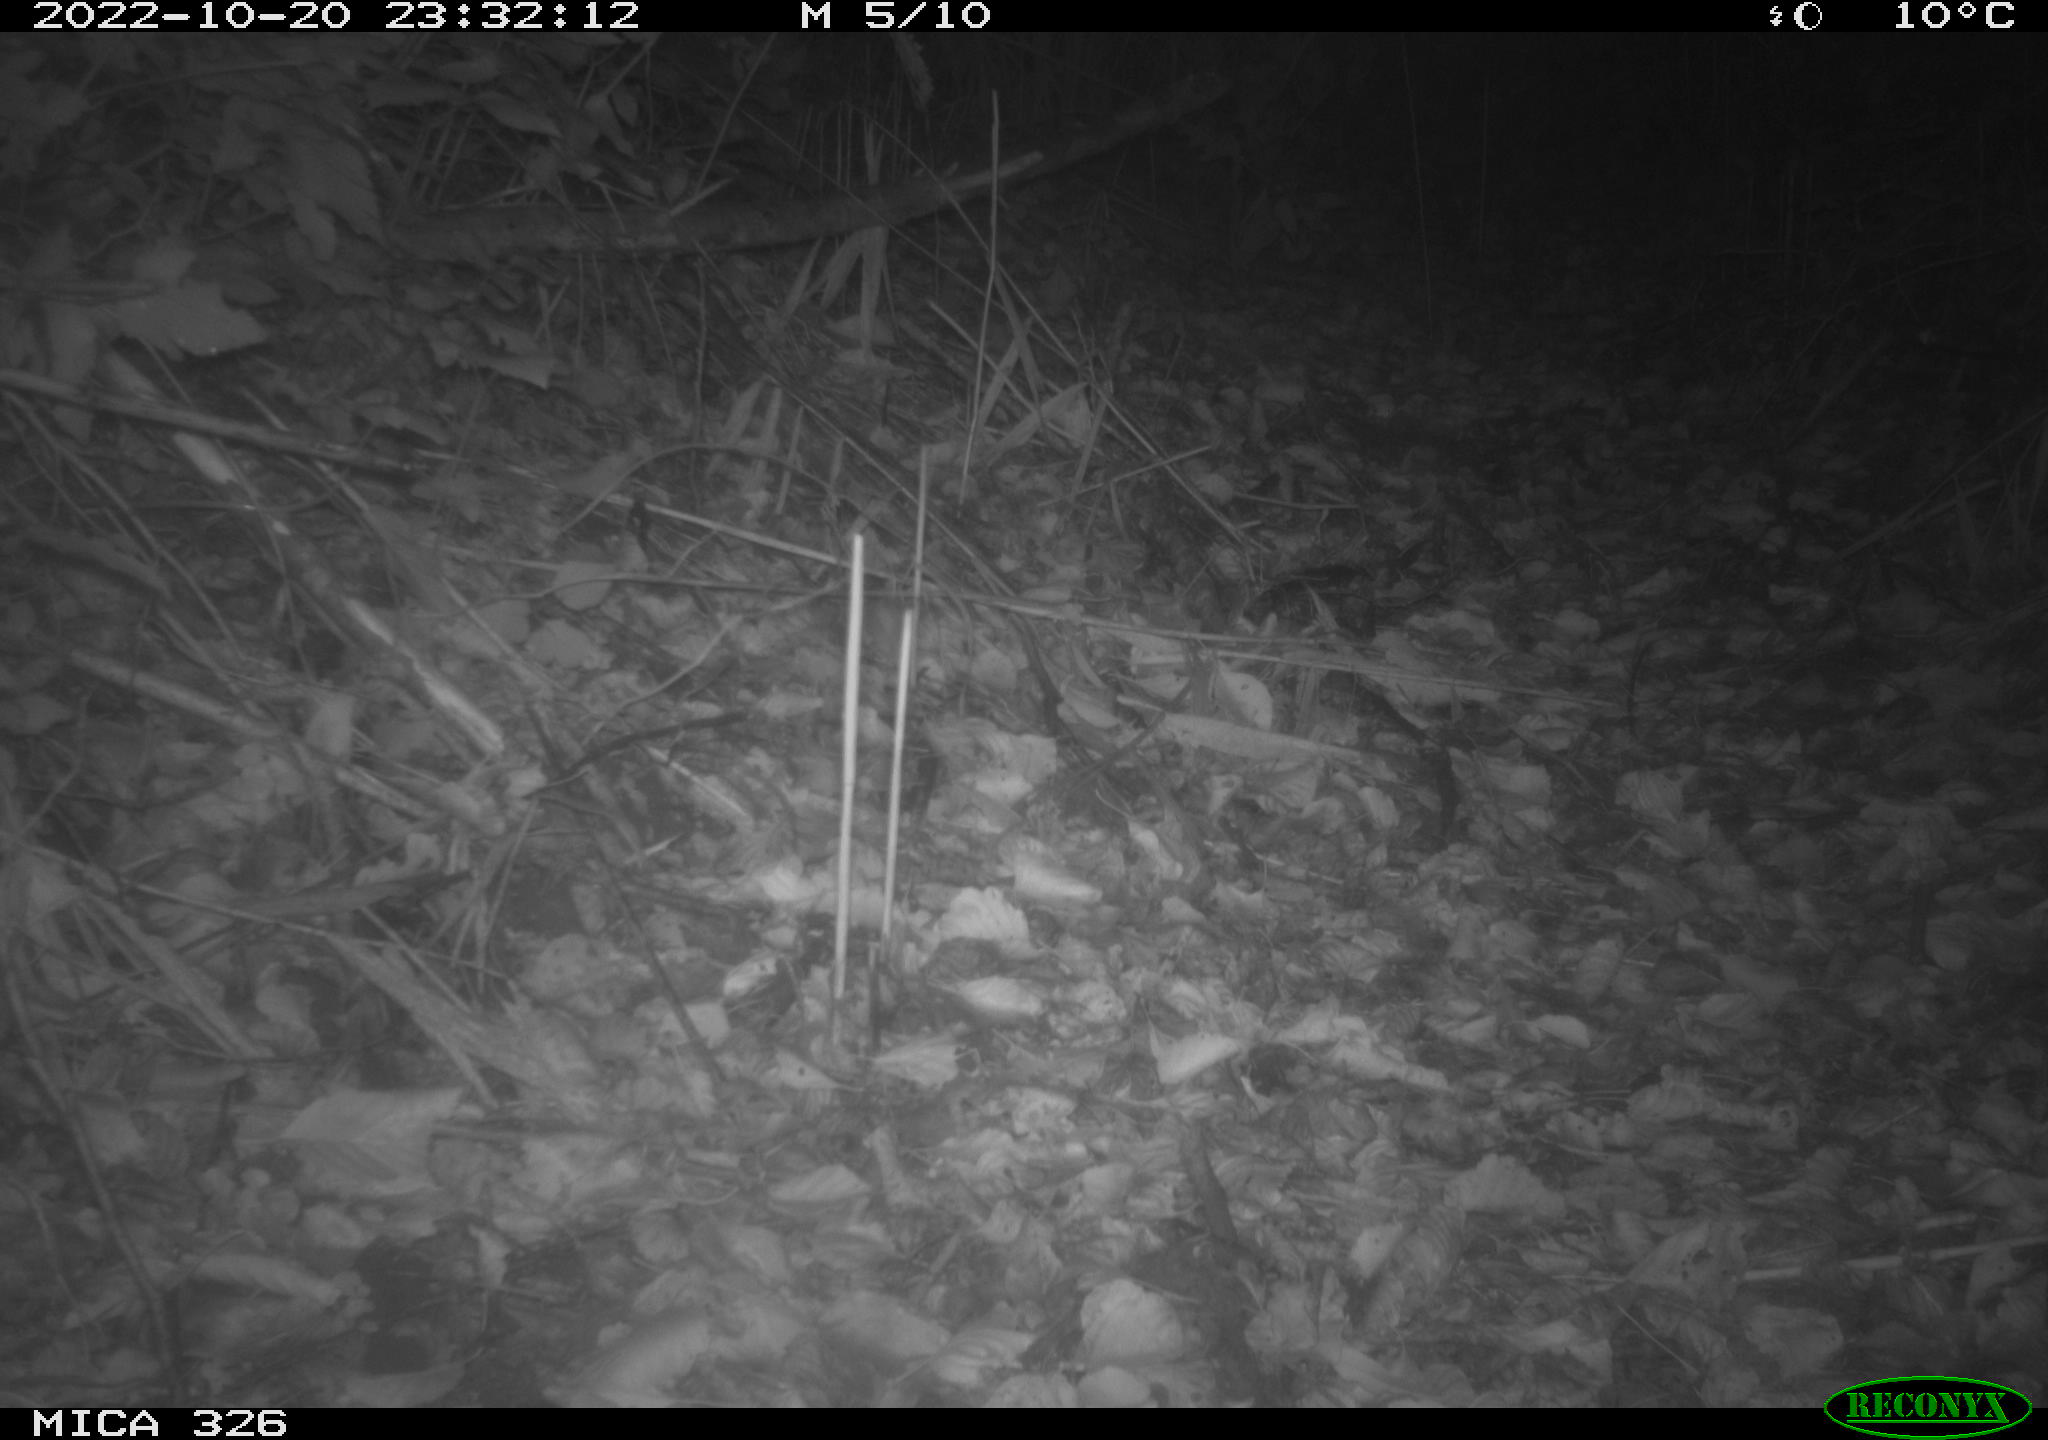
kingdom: Animalia
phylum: Chordata
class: Mammalia
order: Rodentia
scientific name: Rodentia
